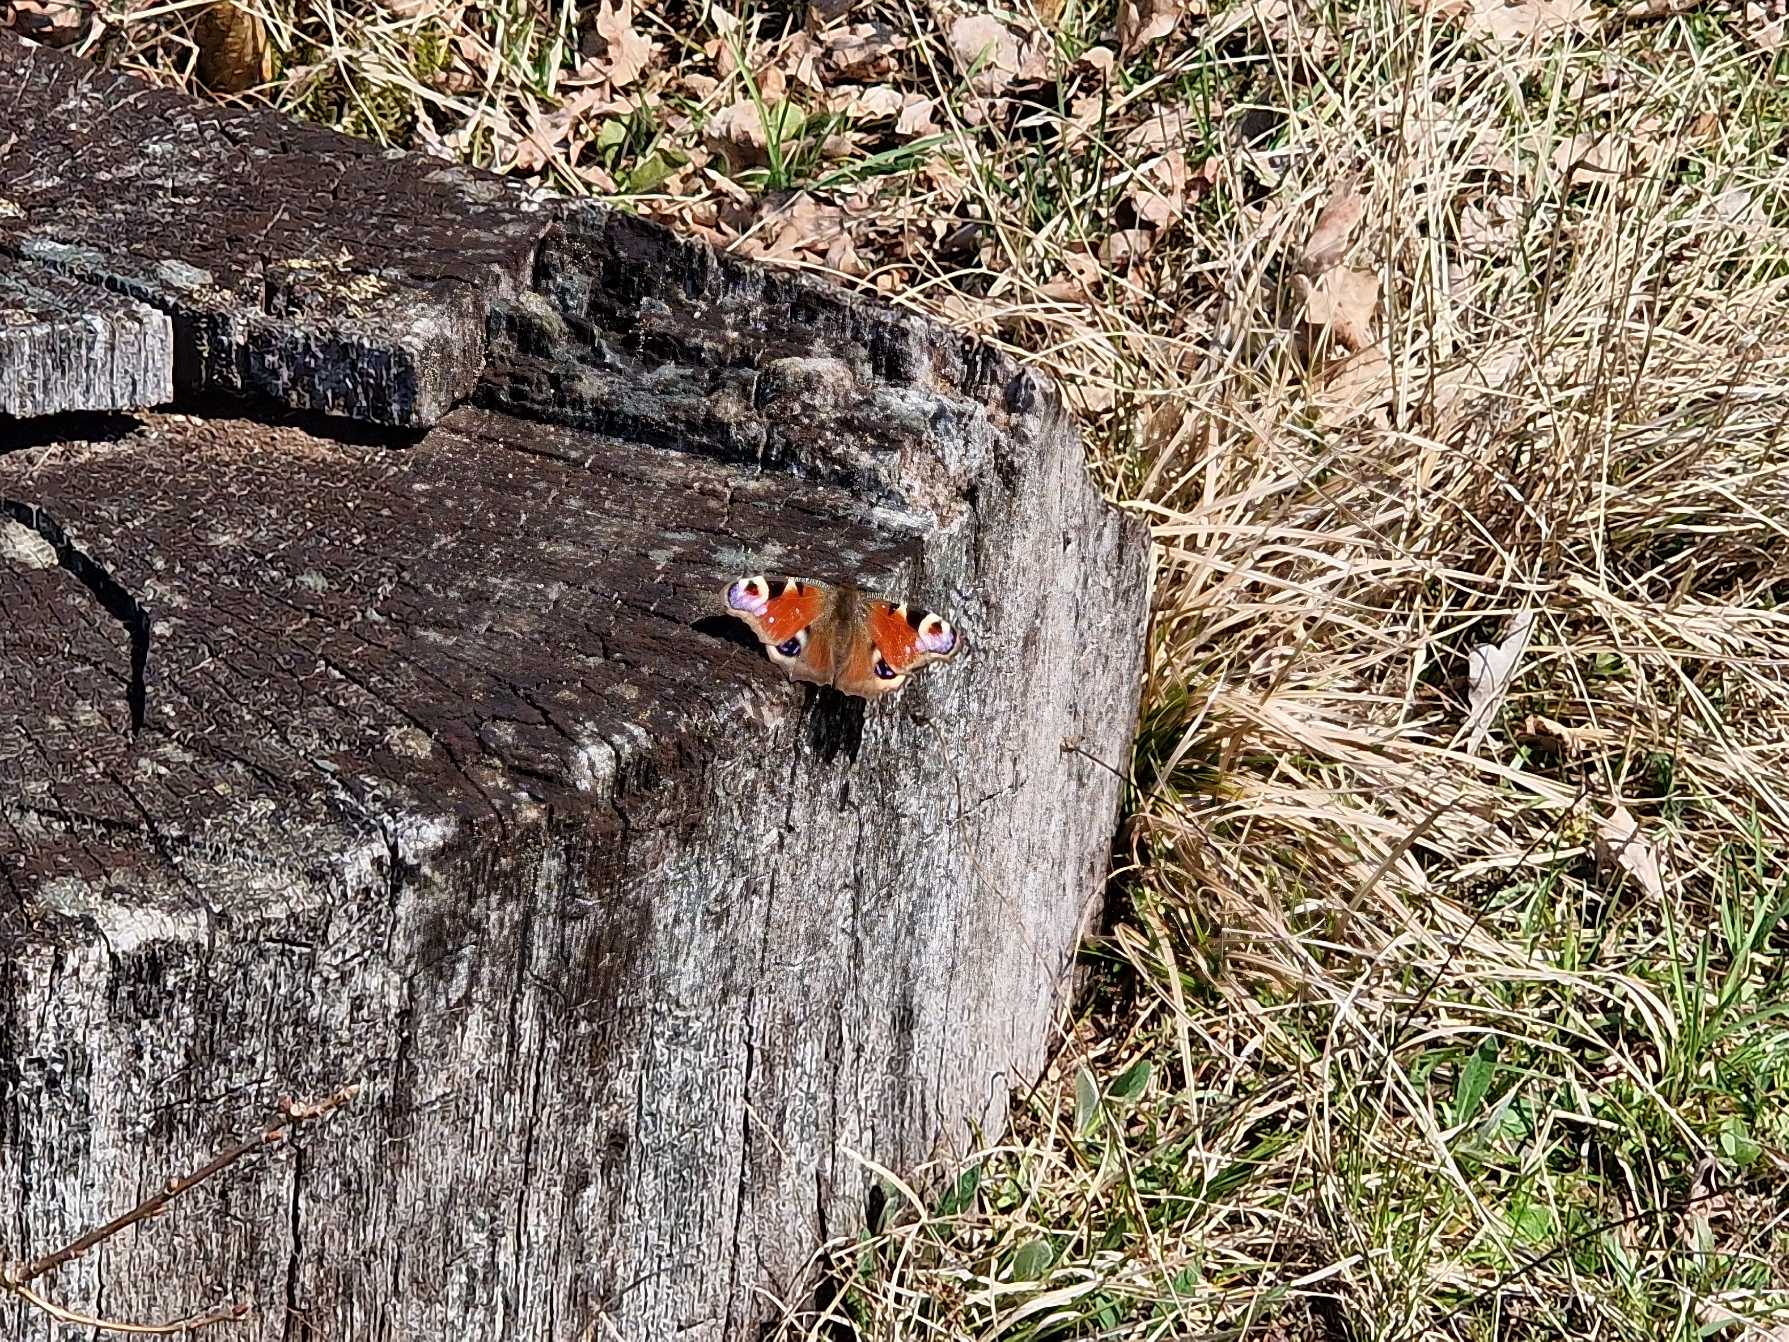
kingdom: Animalia
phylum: Arthropoda
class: Insecta
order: Lepidoptera
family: Nymphalidae
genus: Aglais
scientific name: Aglais io
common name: Dagpåfugleøje
